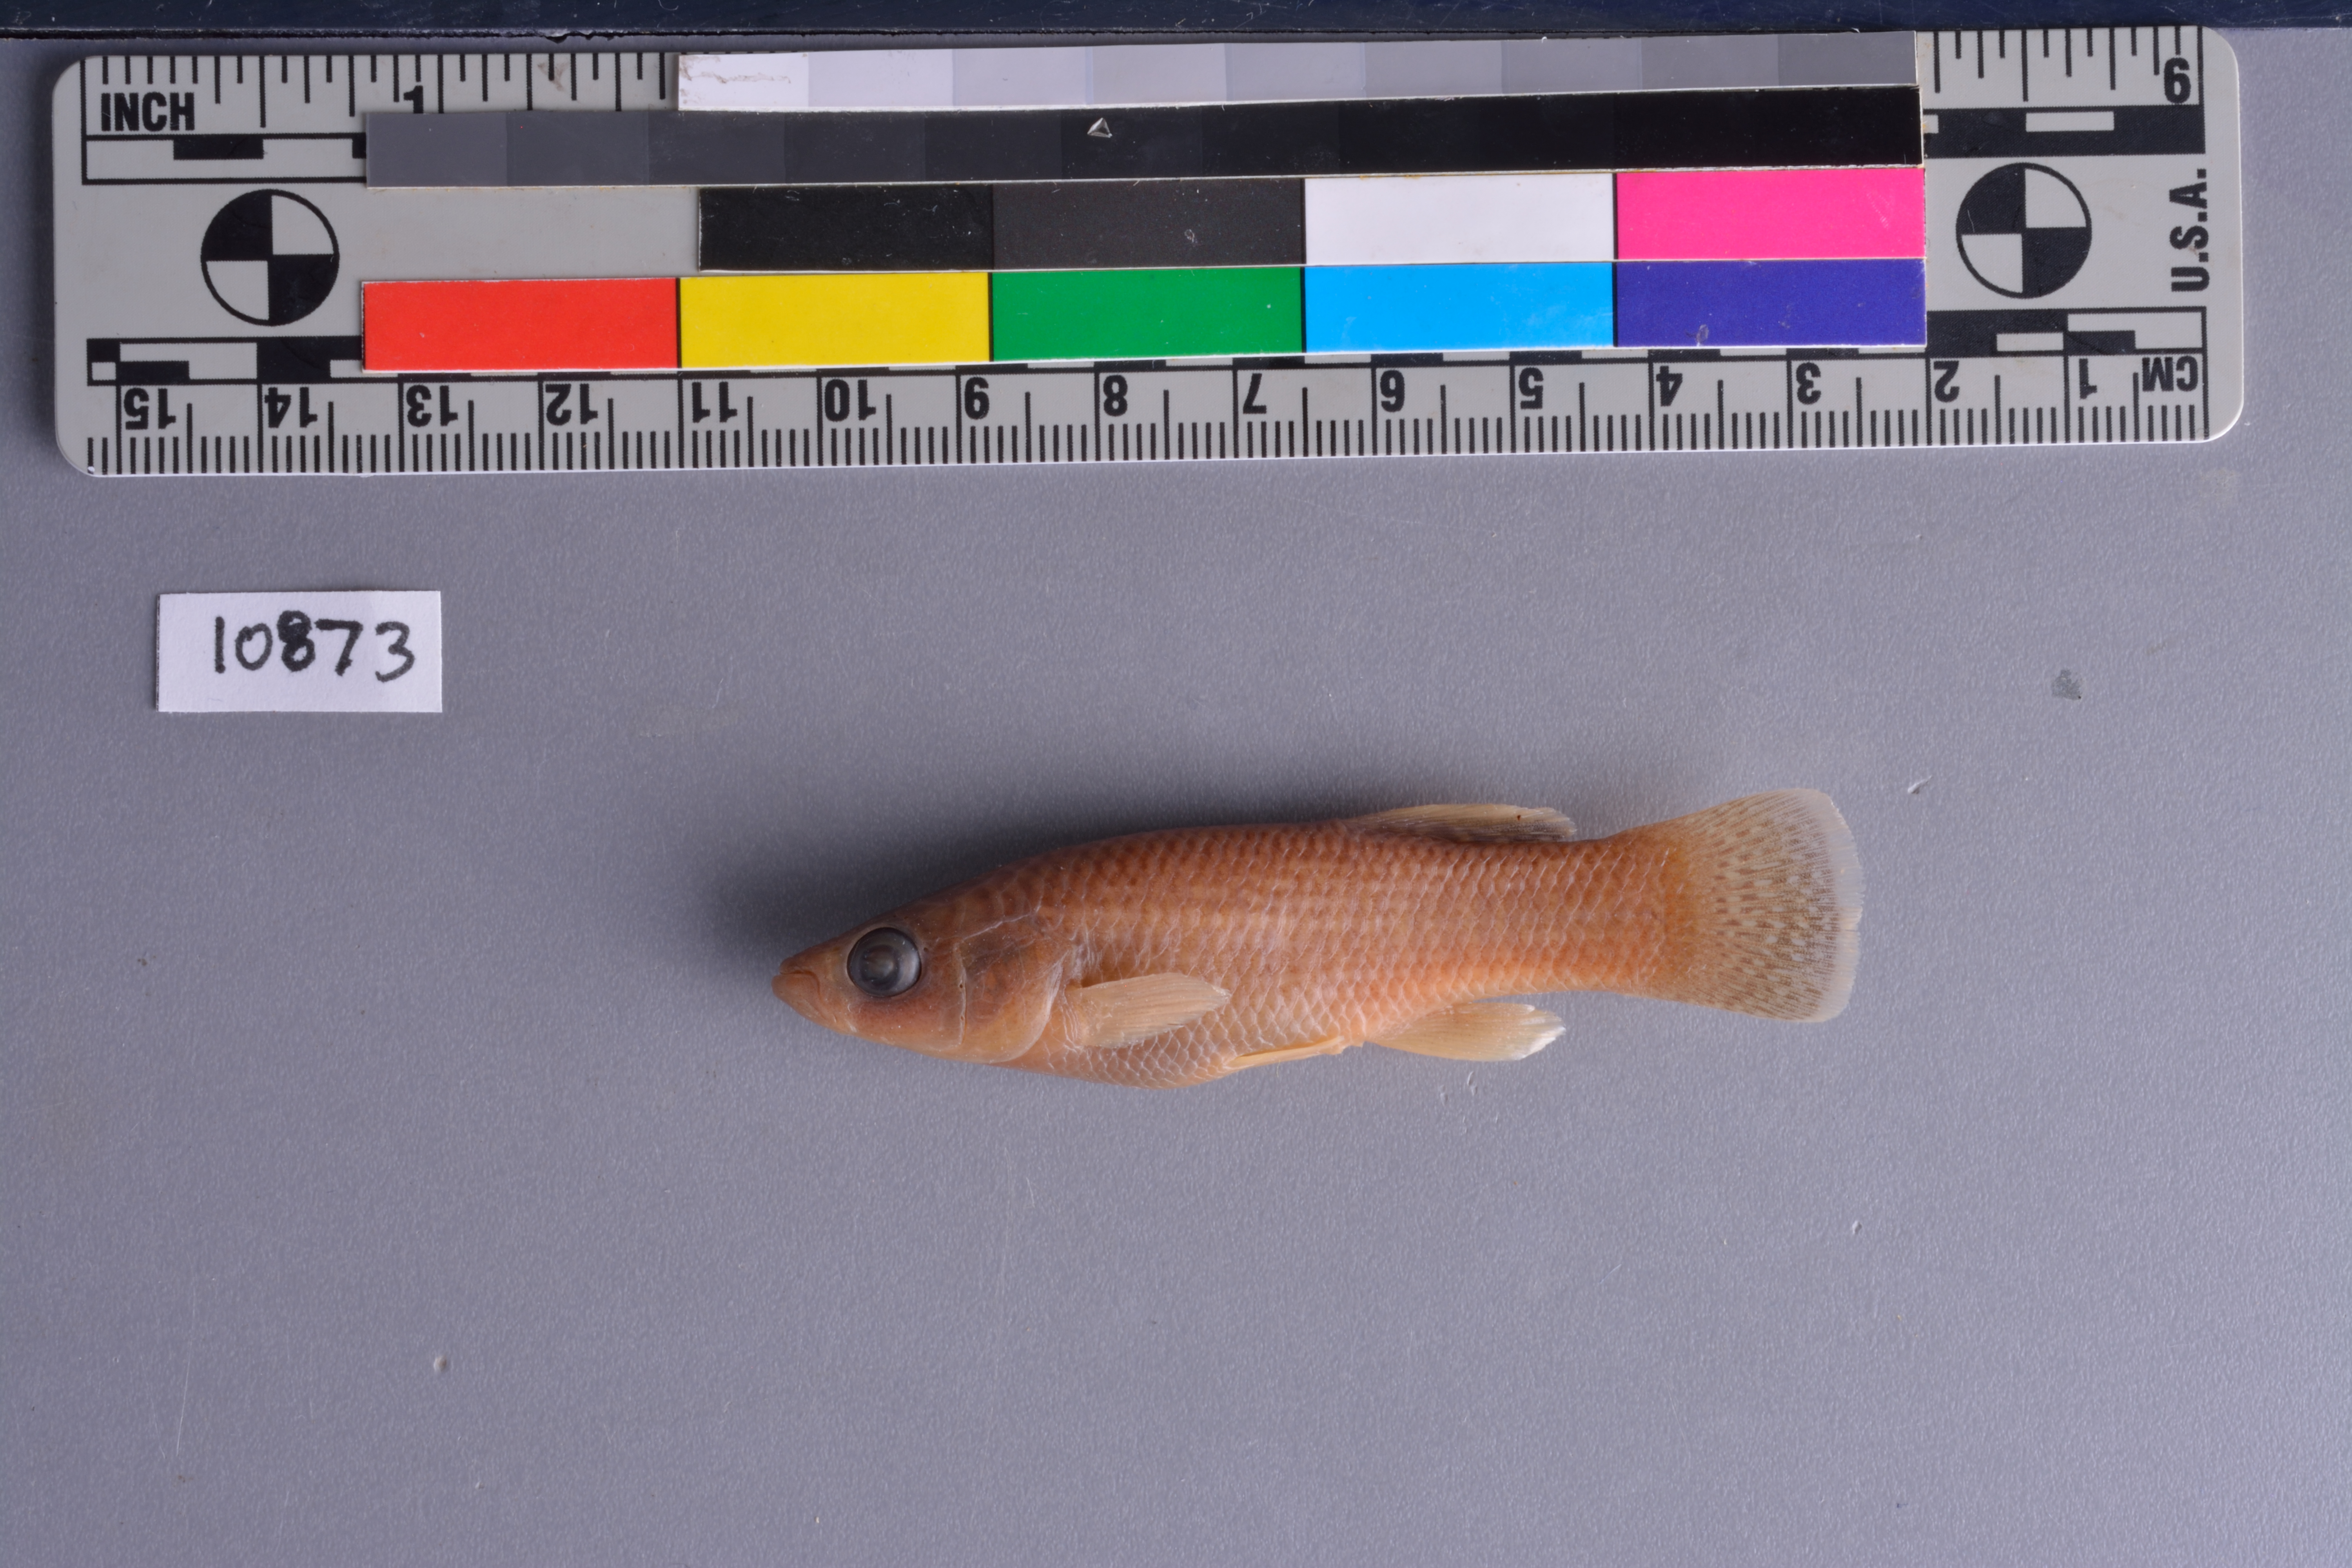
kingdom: Animalia
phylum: Chordata
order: Cyprinodontiformes
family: Fundulidae
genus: Fundulus
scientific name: Fundulus grandis
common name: Gulf killifish
